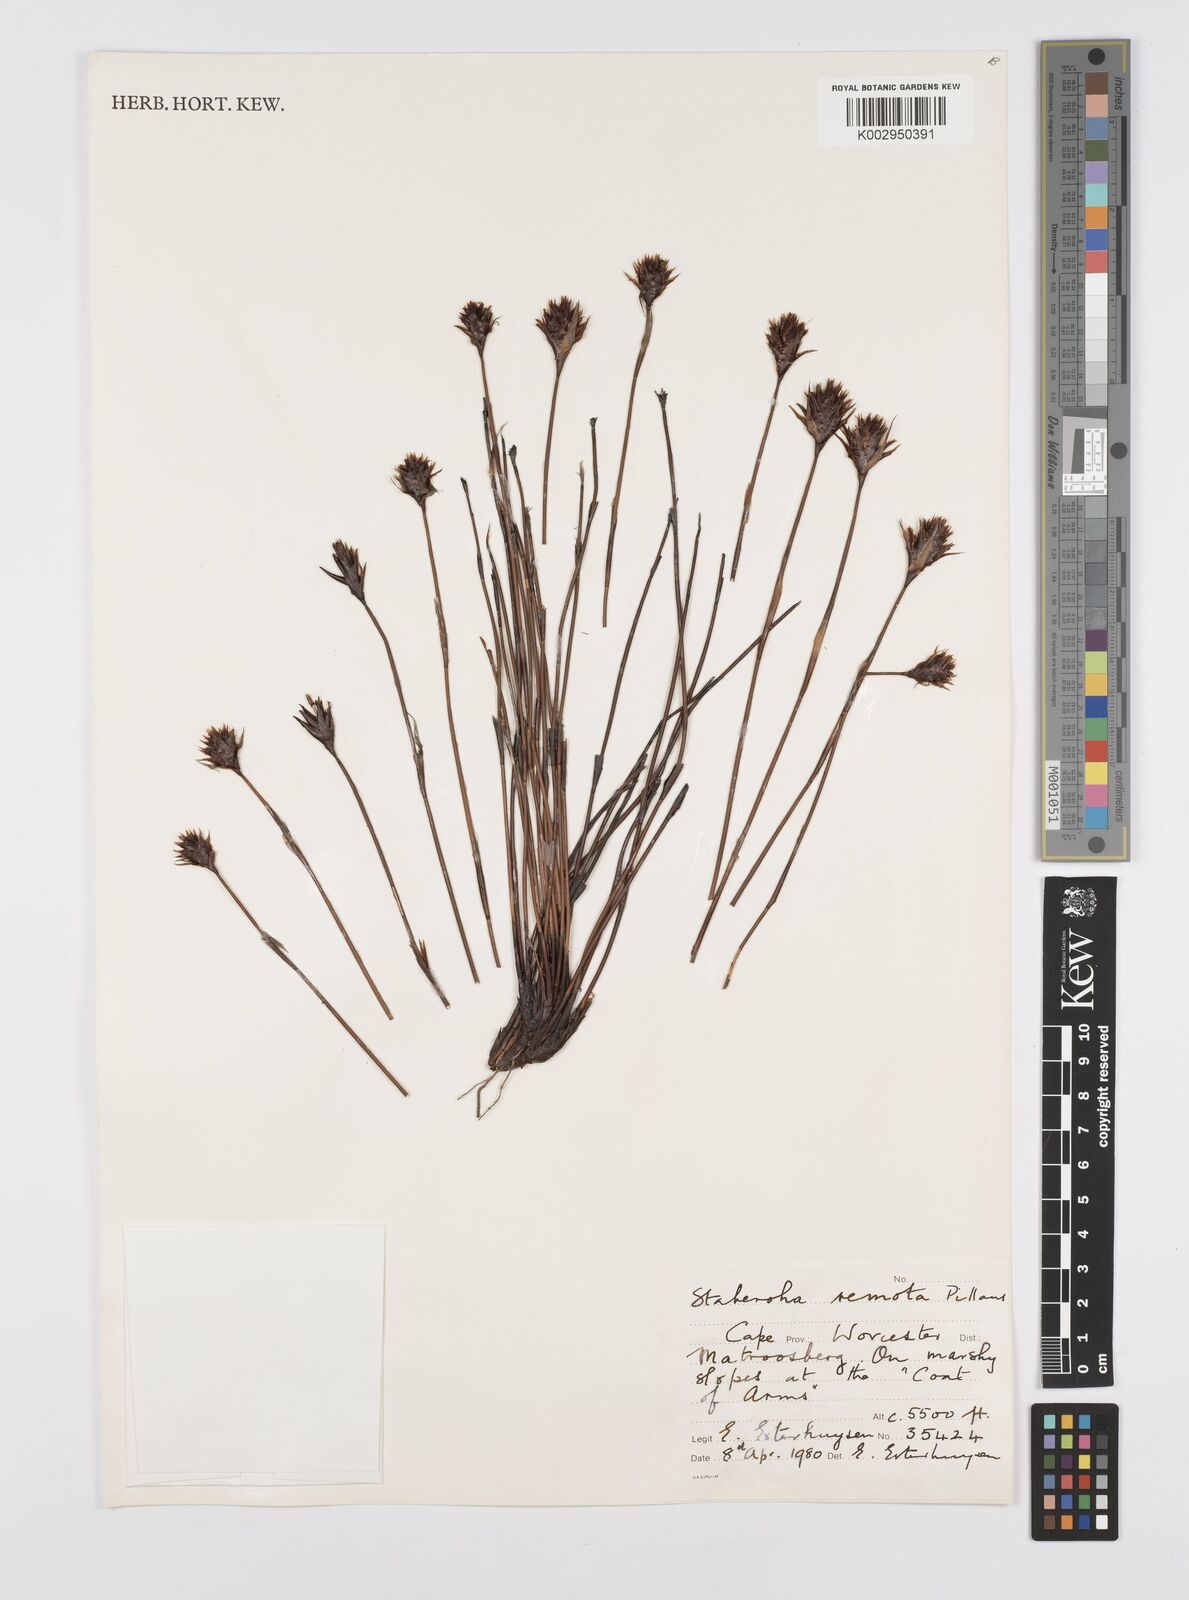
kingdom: Plantae
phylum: Tracheophyta
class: Liliopsida
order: Poales
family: Restionaceae
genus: Staberoha
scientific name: Staberoha remota
